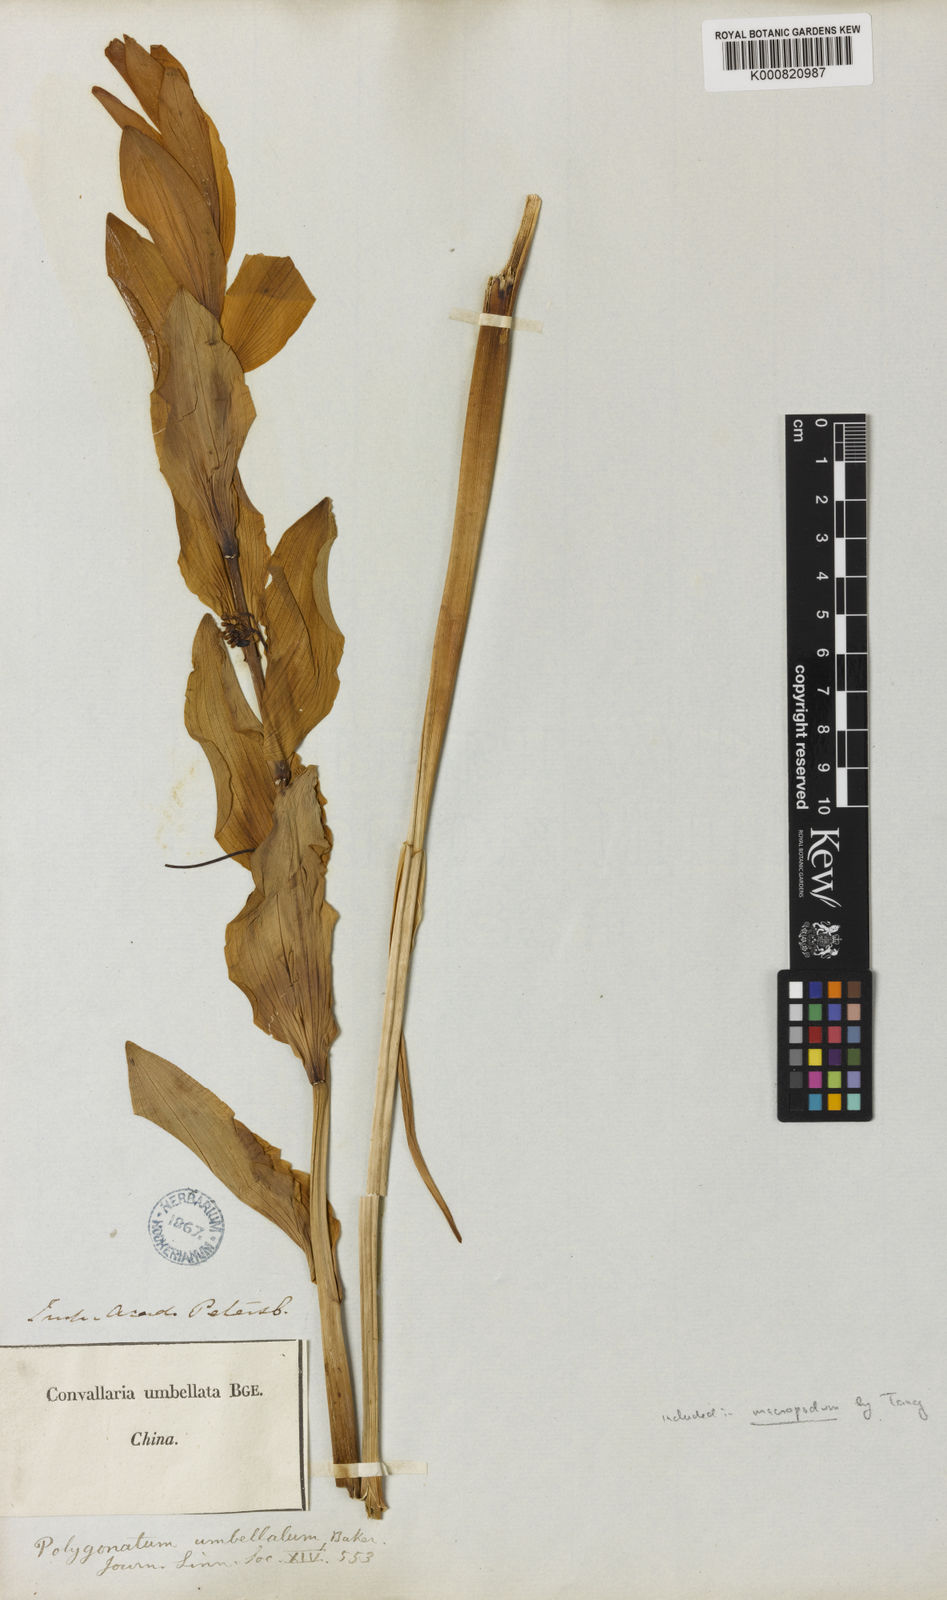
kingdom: Plantae
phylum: Tracheophyta
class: Liliopsida
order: Asparagales
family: Asparagaceae
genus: Polygonatum
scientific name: Polygonatum macropodum
